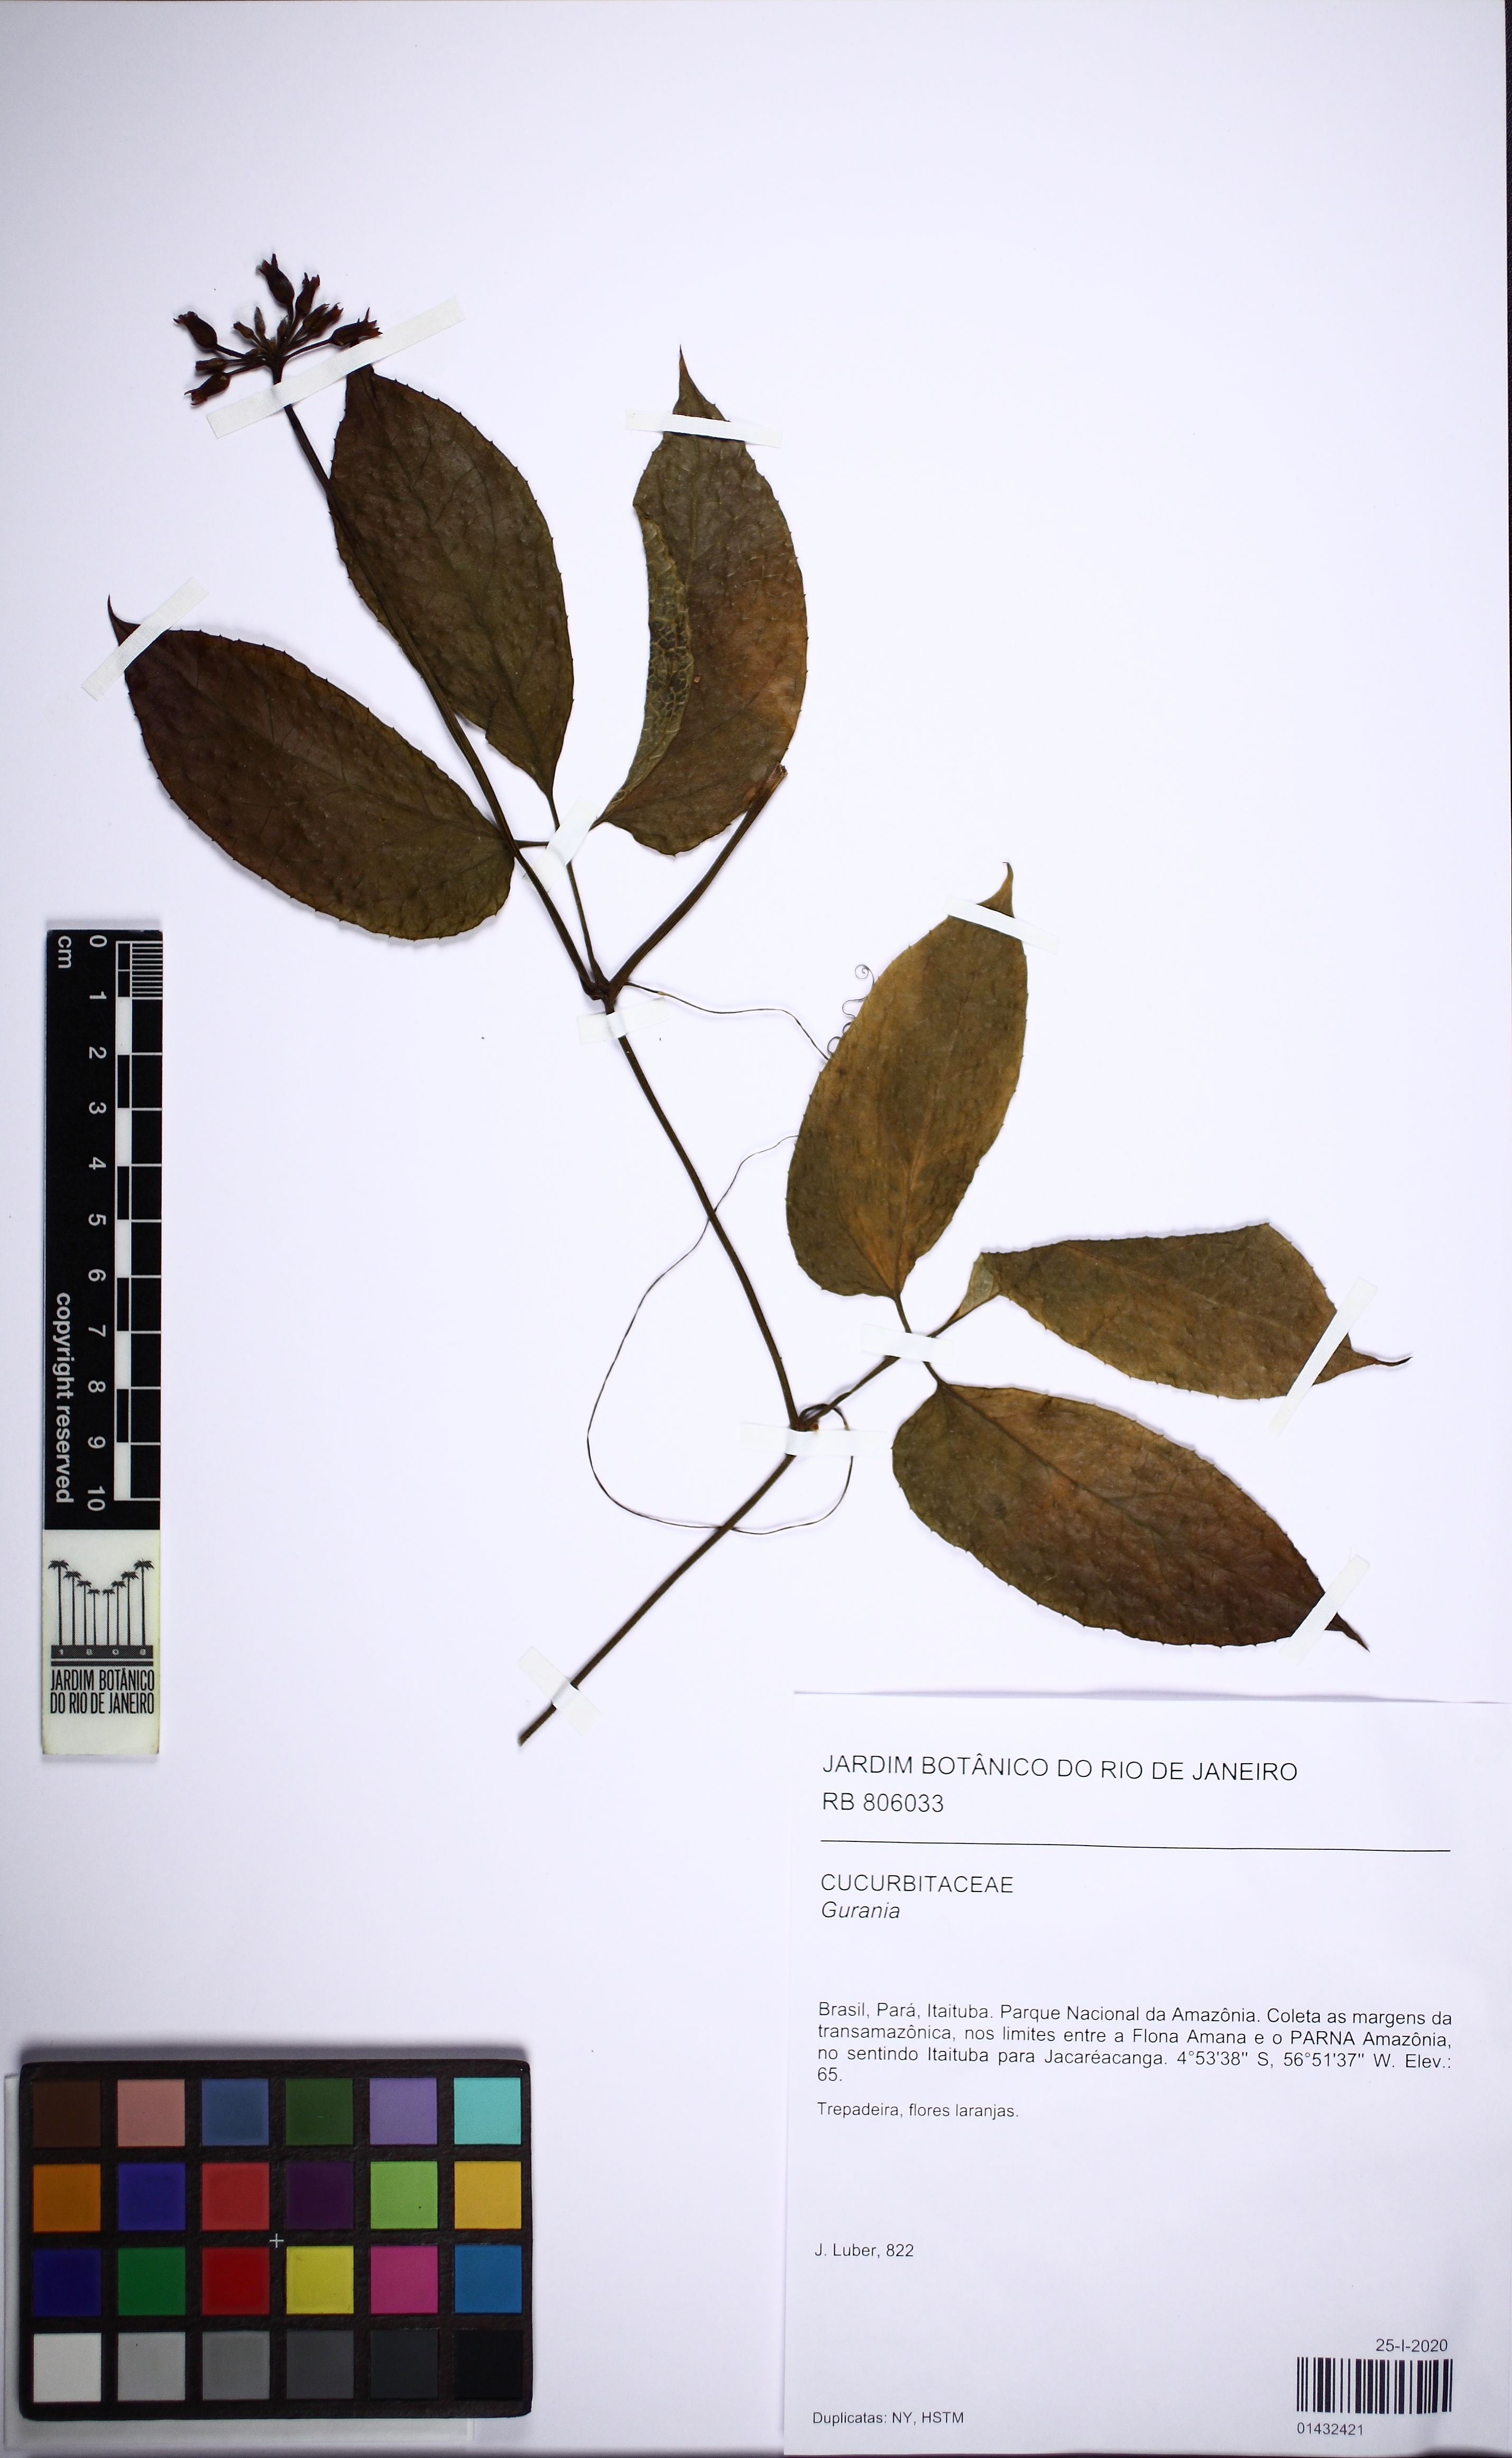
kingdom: Plantae
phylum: Tracheophyta
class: Magnoliopsida
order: Cucurbitales
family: Cucurbitaceae
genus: Gurania
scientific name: Gurania
